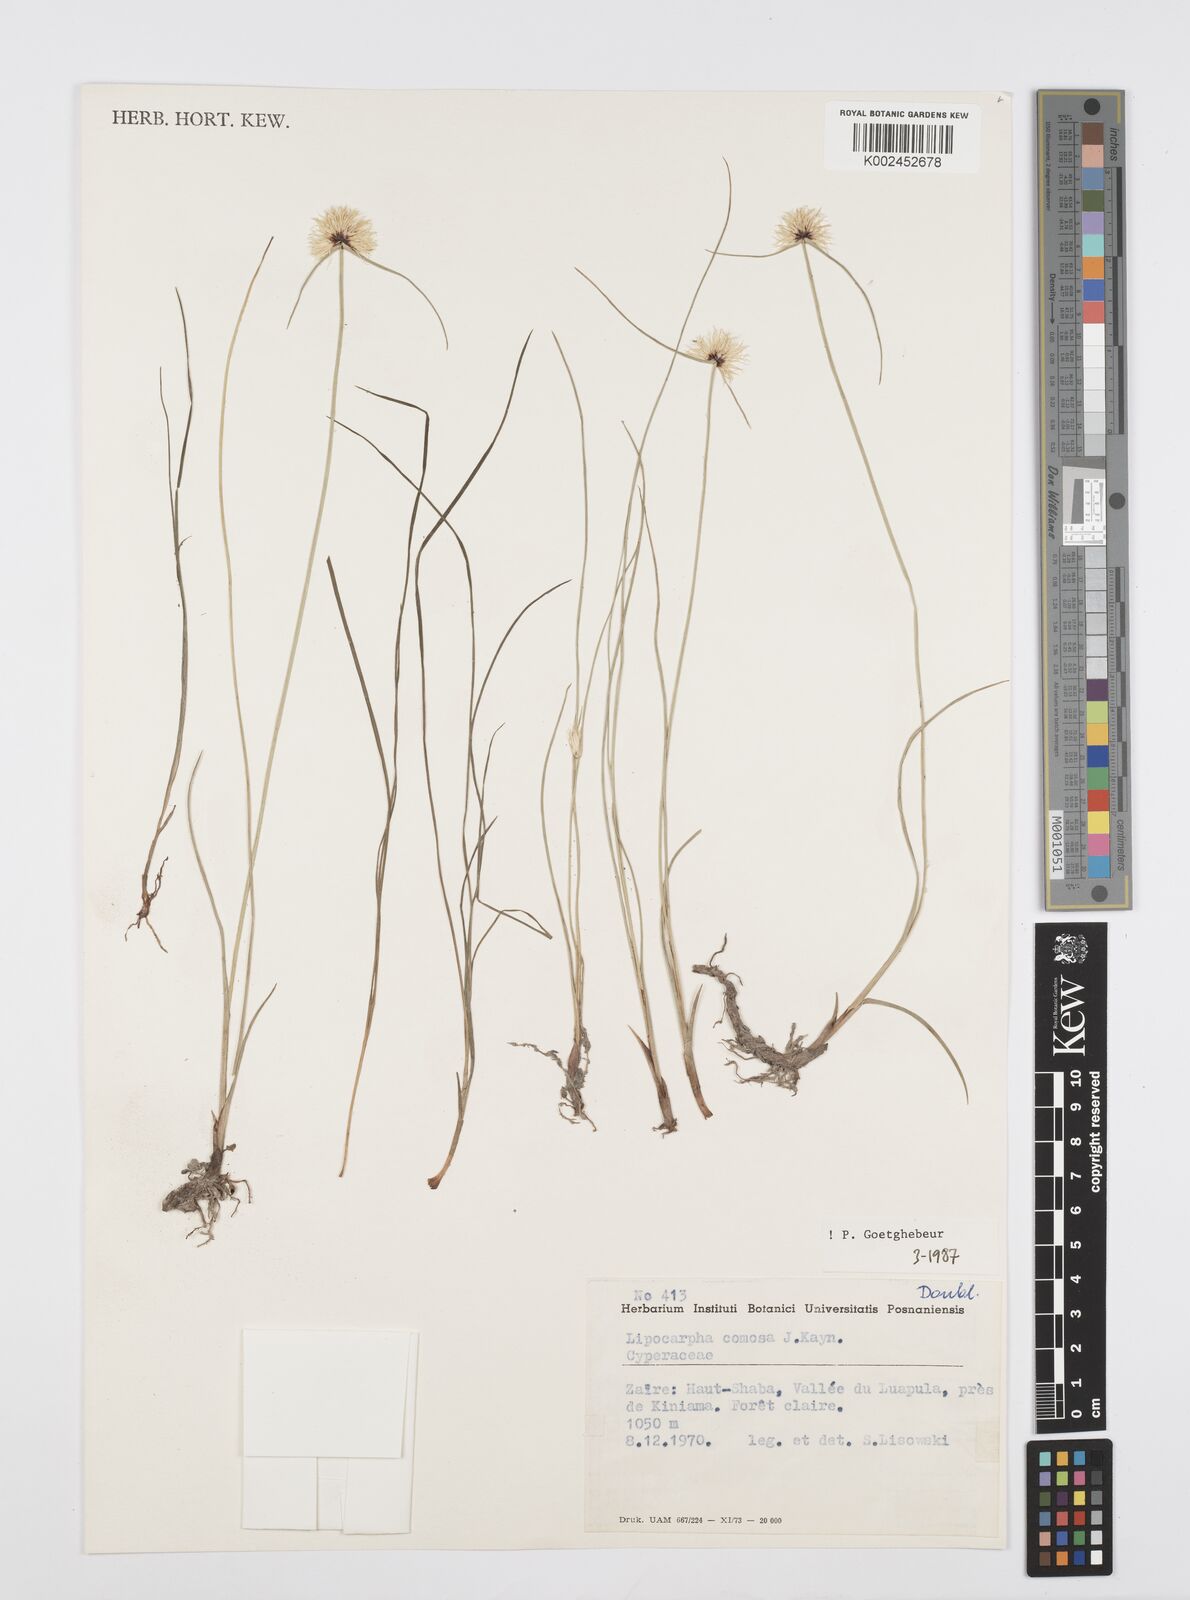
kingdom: Plantae
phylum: Tracheophyta
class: Liliopsida
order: Poales
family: Cyperaceae
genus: Cyperus
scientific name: Cyperus lipocomosus
